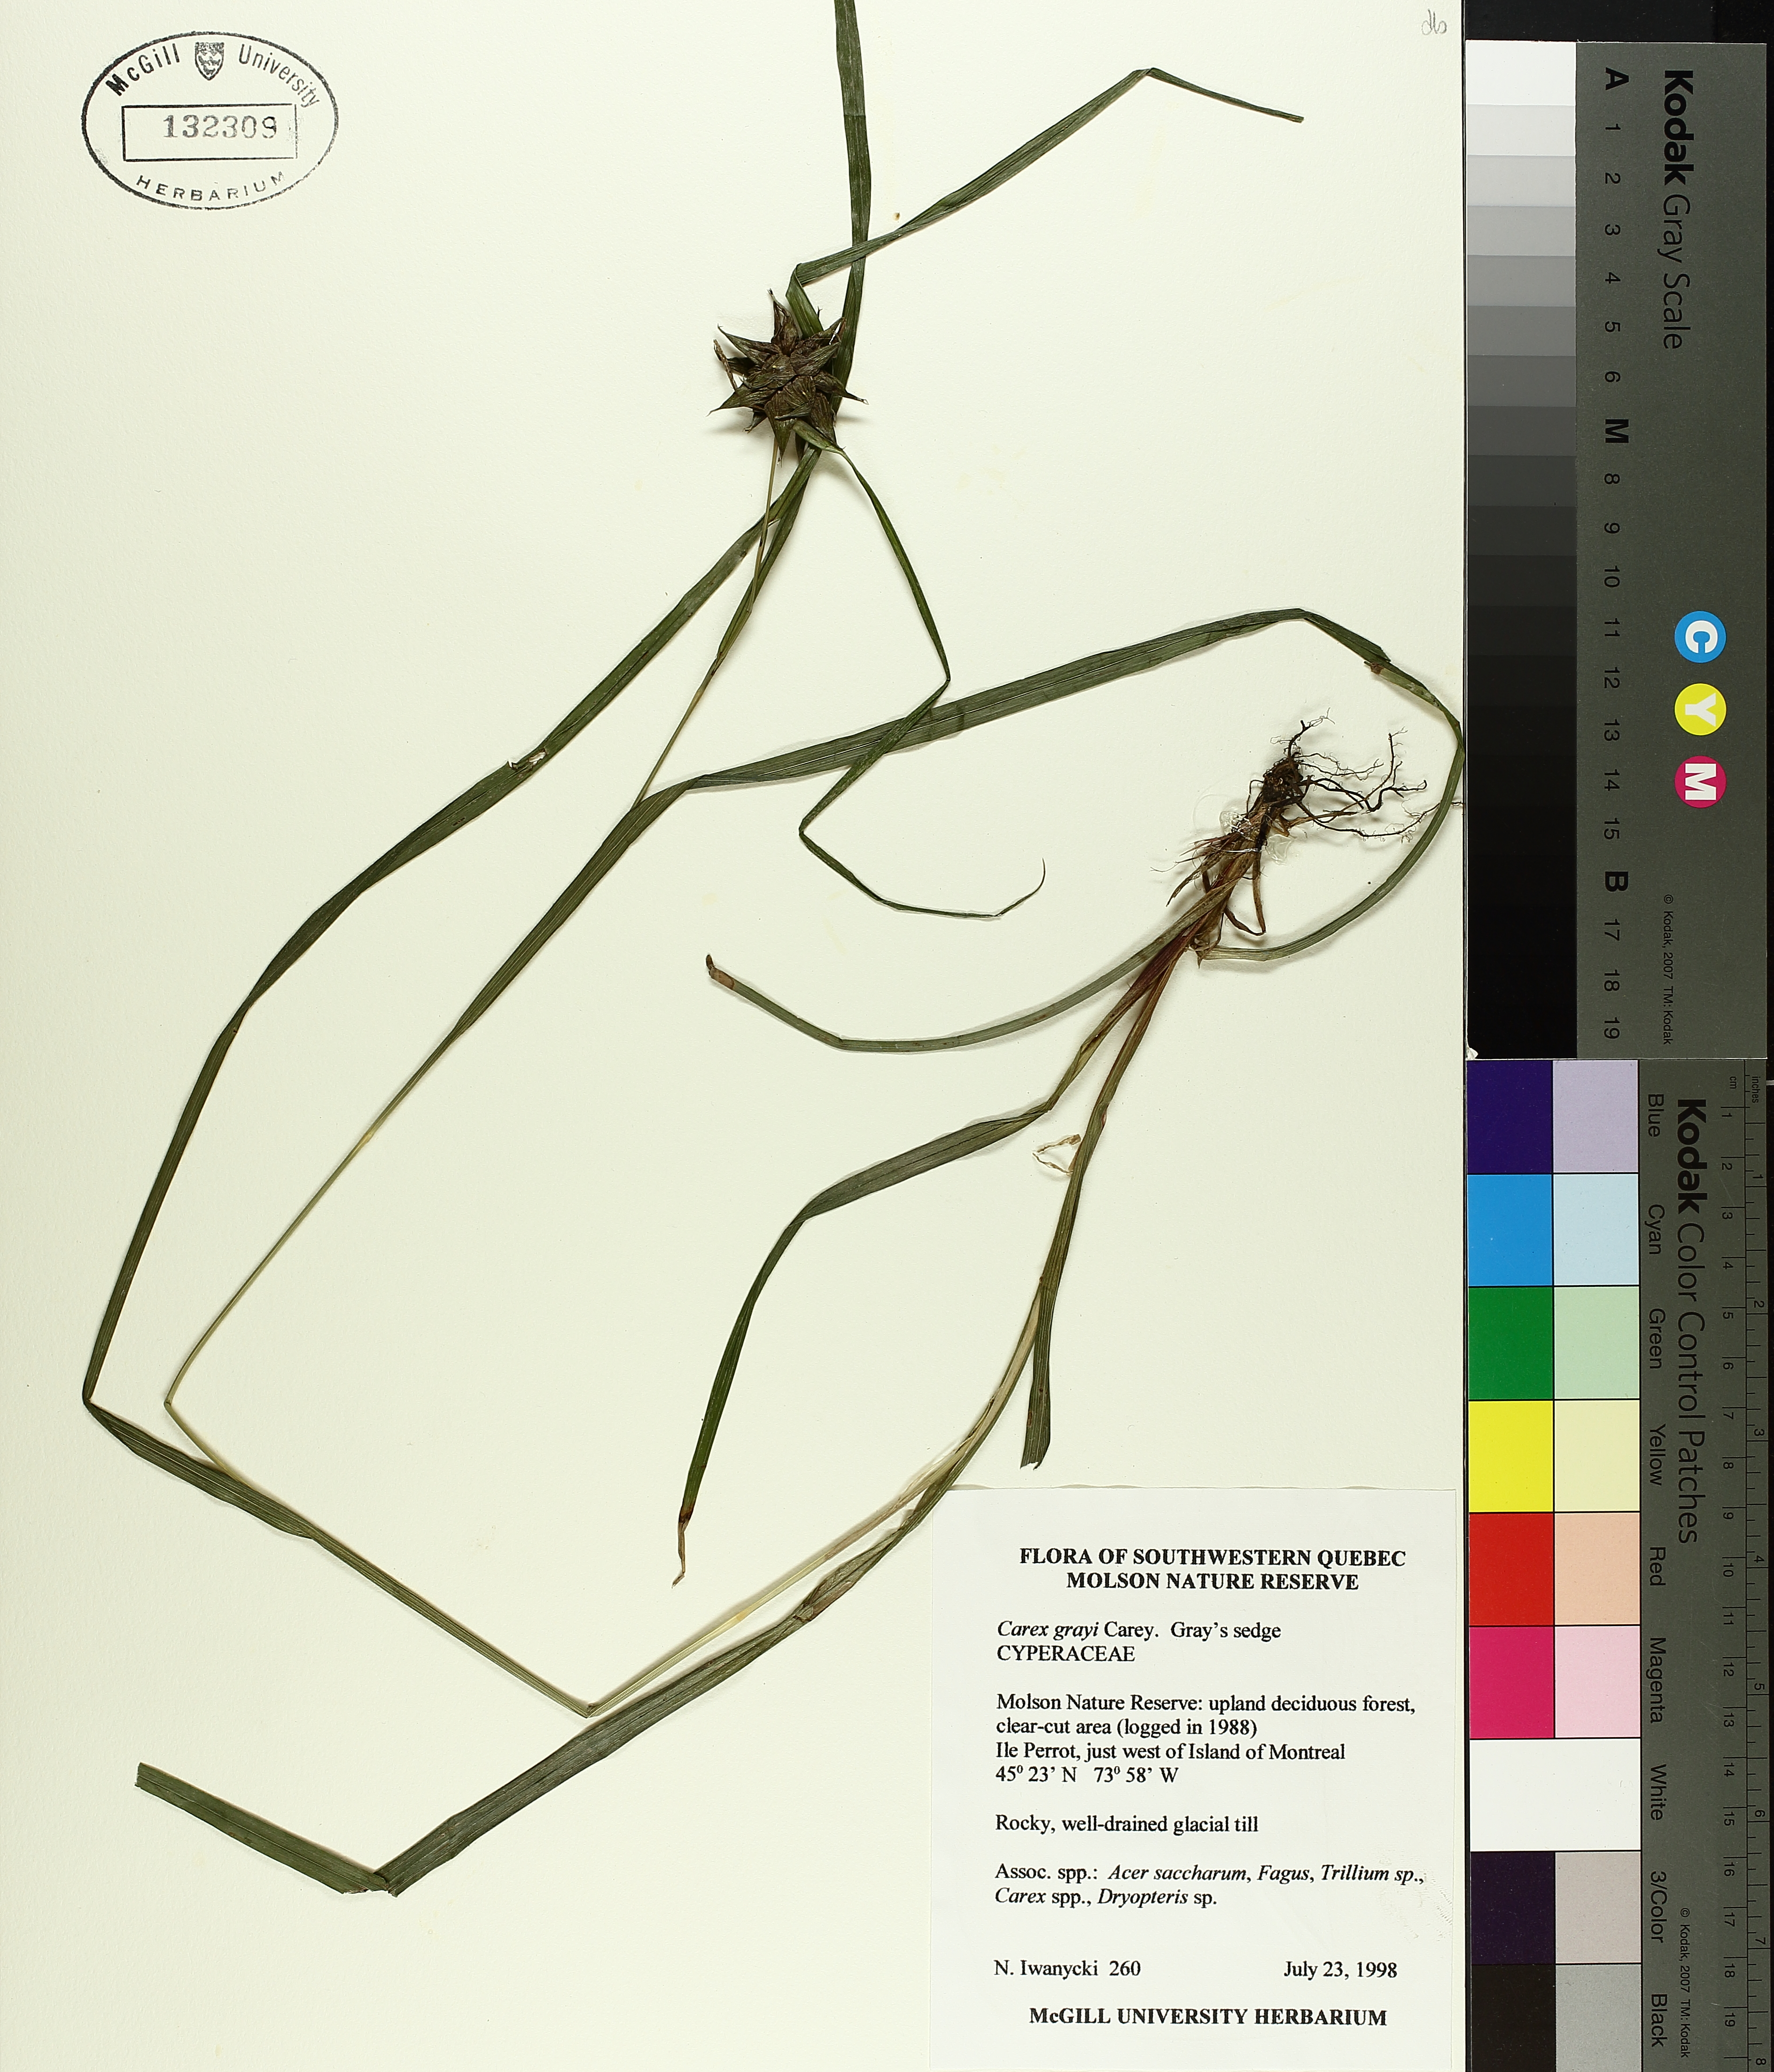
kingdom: Plantae
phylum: Tracheophyta
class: Liliopsida
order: Poales
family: Cyperaceae
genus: Carex
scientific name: Carex grayi
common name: Asa gray's sedge
